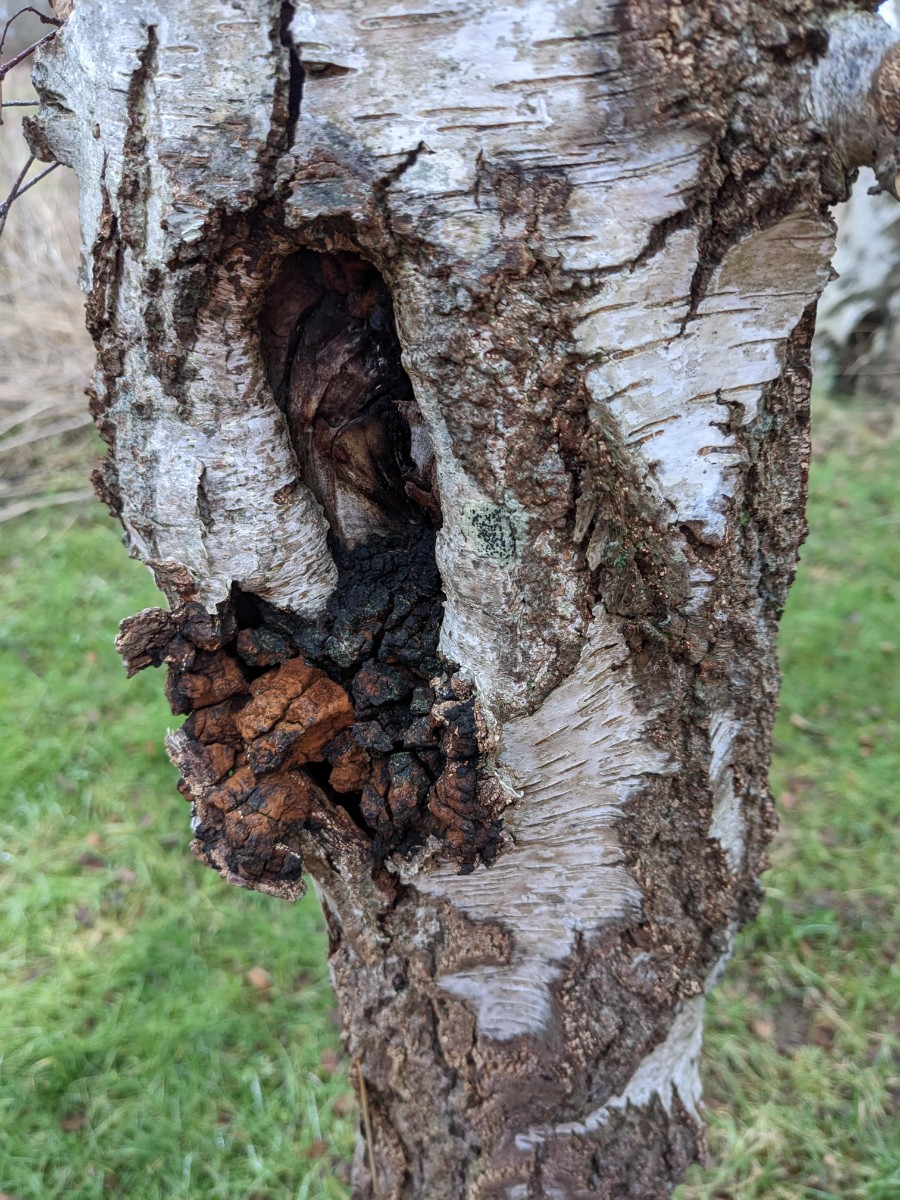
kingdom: Fungi
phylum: Basidiomycota
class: Agaricomycetes
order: Hymenochaetales
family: Hymenochaetaceae
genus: Inonotus
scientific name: Inonotus obliquus
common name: birke-spejlporesvamp
